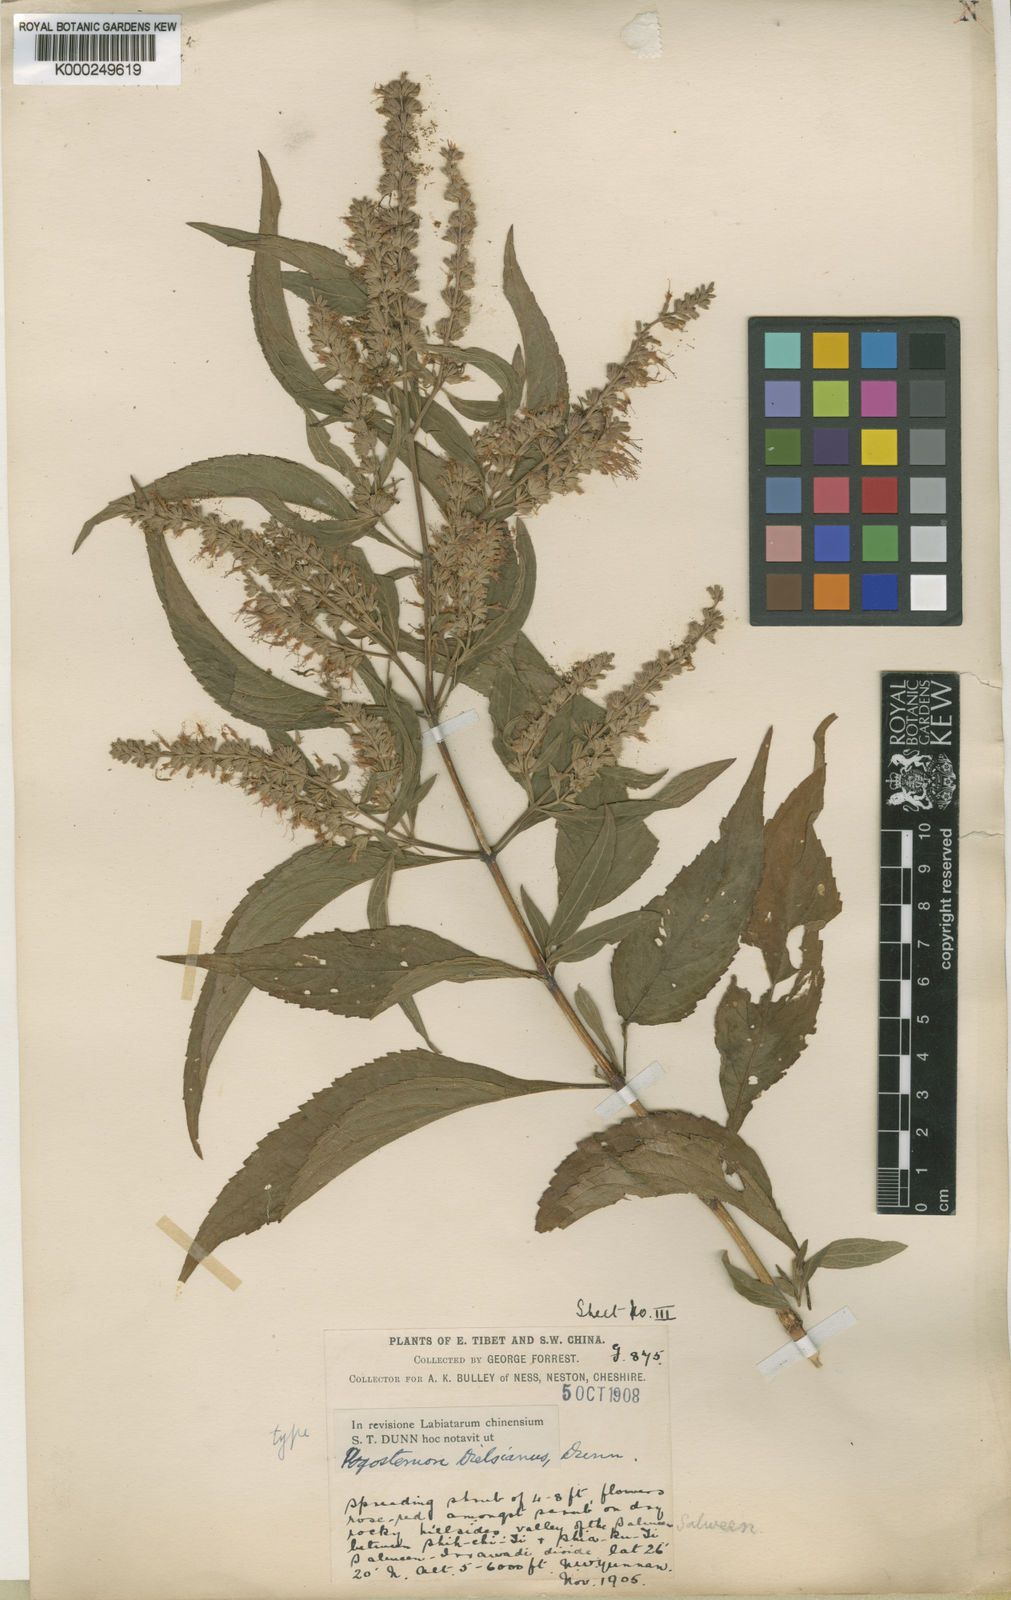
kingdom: Plantae
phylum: Tracheophyta
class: Magnoliopsida
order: Lamiales
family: Lamiaceae
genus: Pogostemon
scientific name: Pogostemon dielsianus
